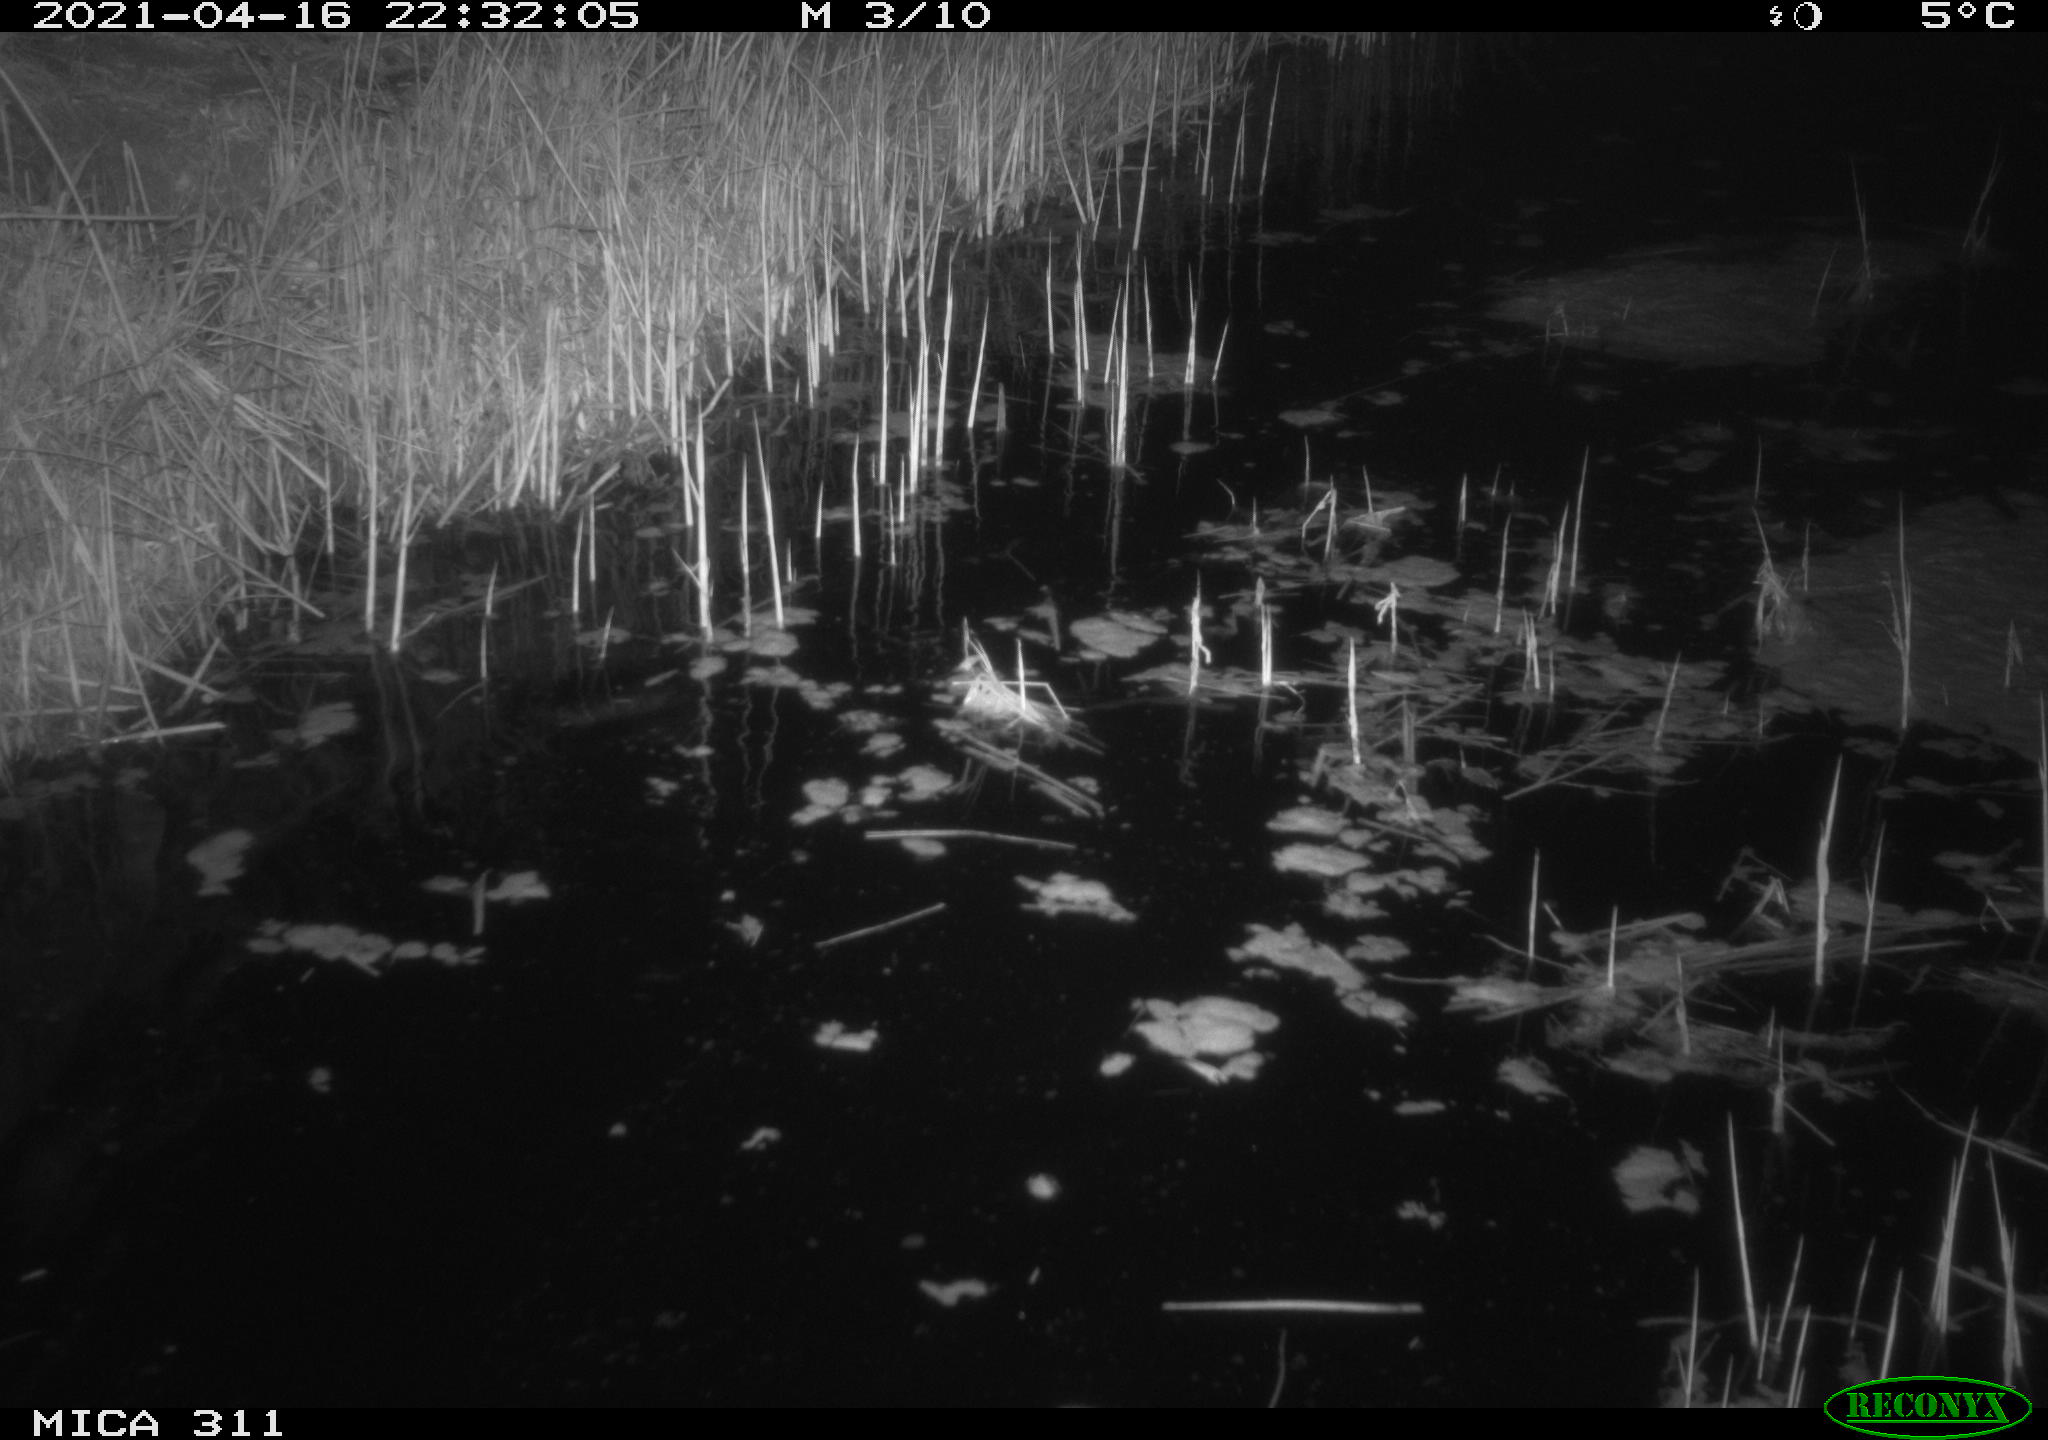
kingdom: Animalia
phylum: Chordata
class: Mammalia
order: Rodentia
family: Cricetidae
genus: Ondatra
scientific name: Ondatra zibethicus
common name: Muskrat
